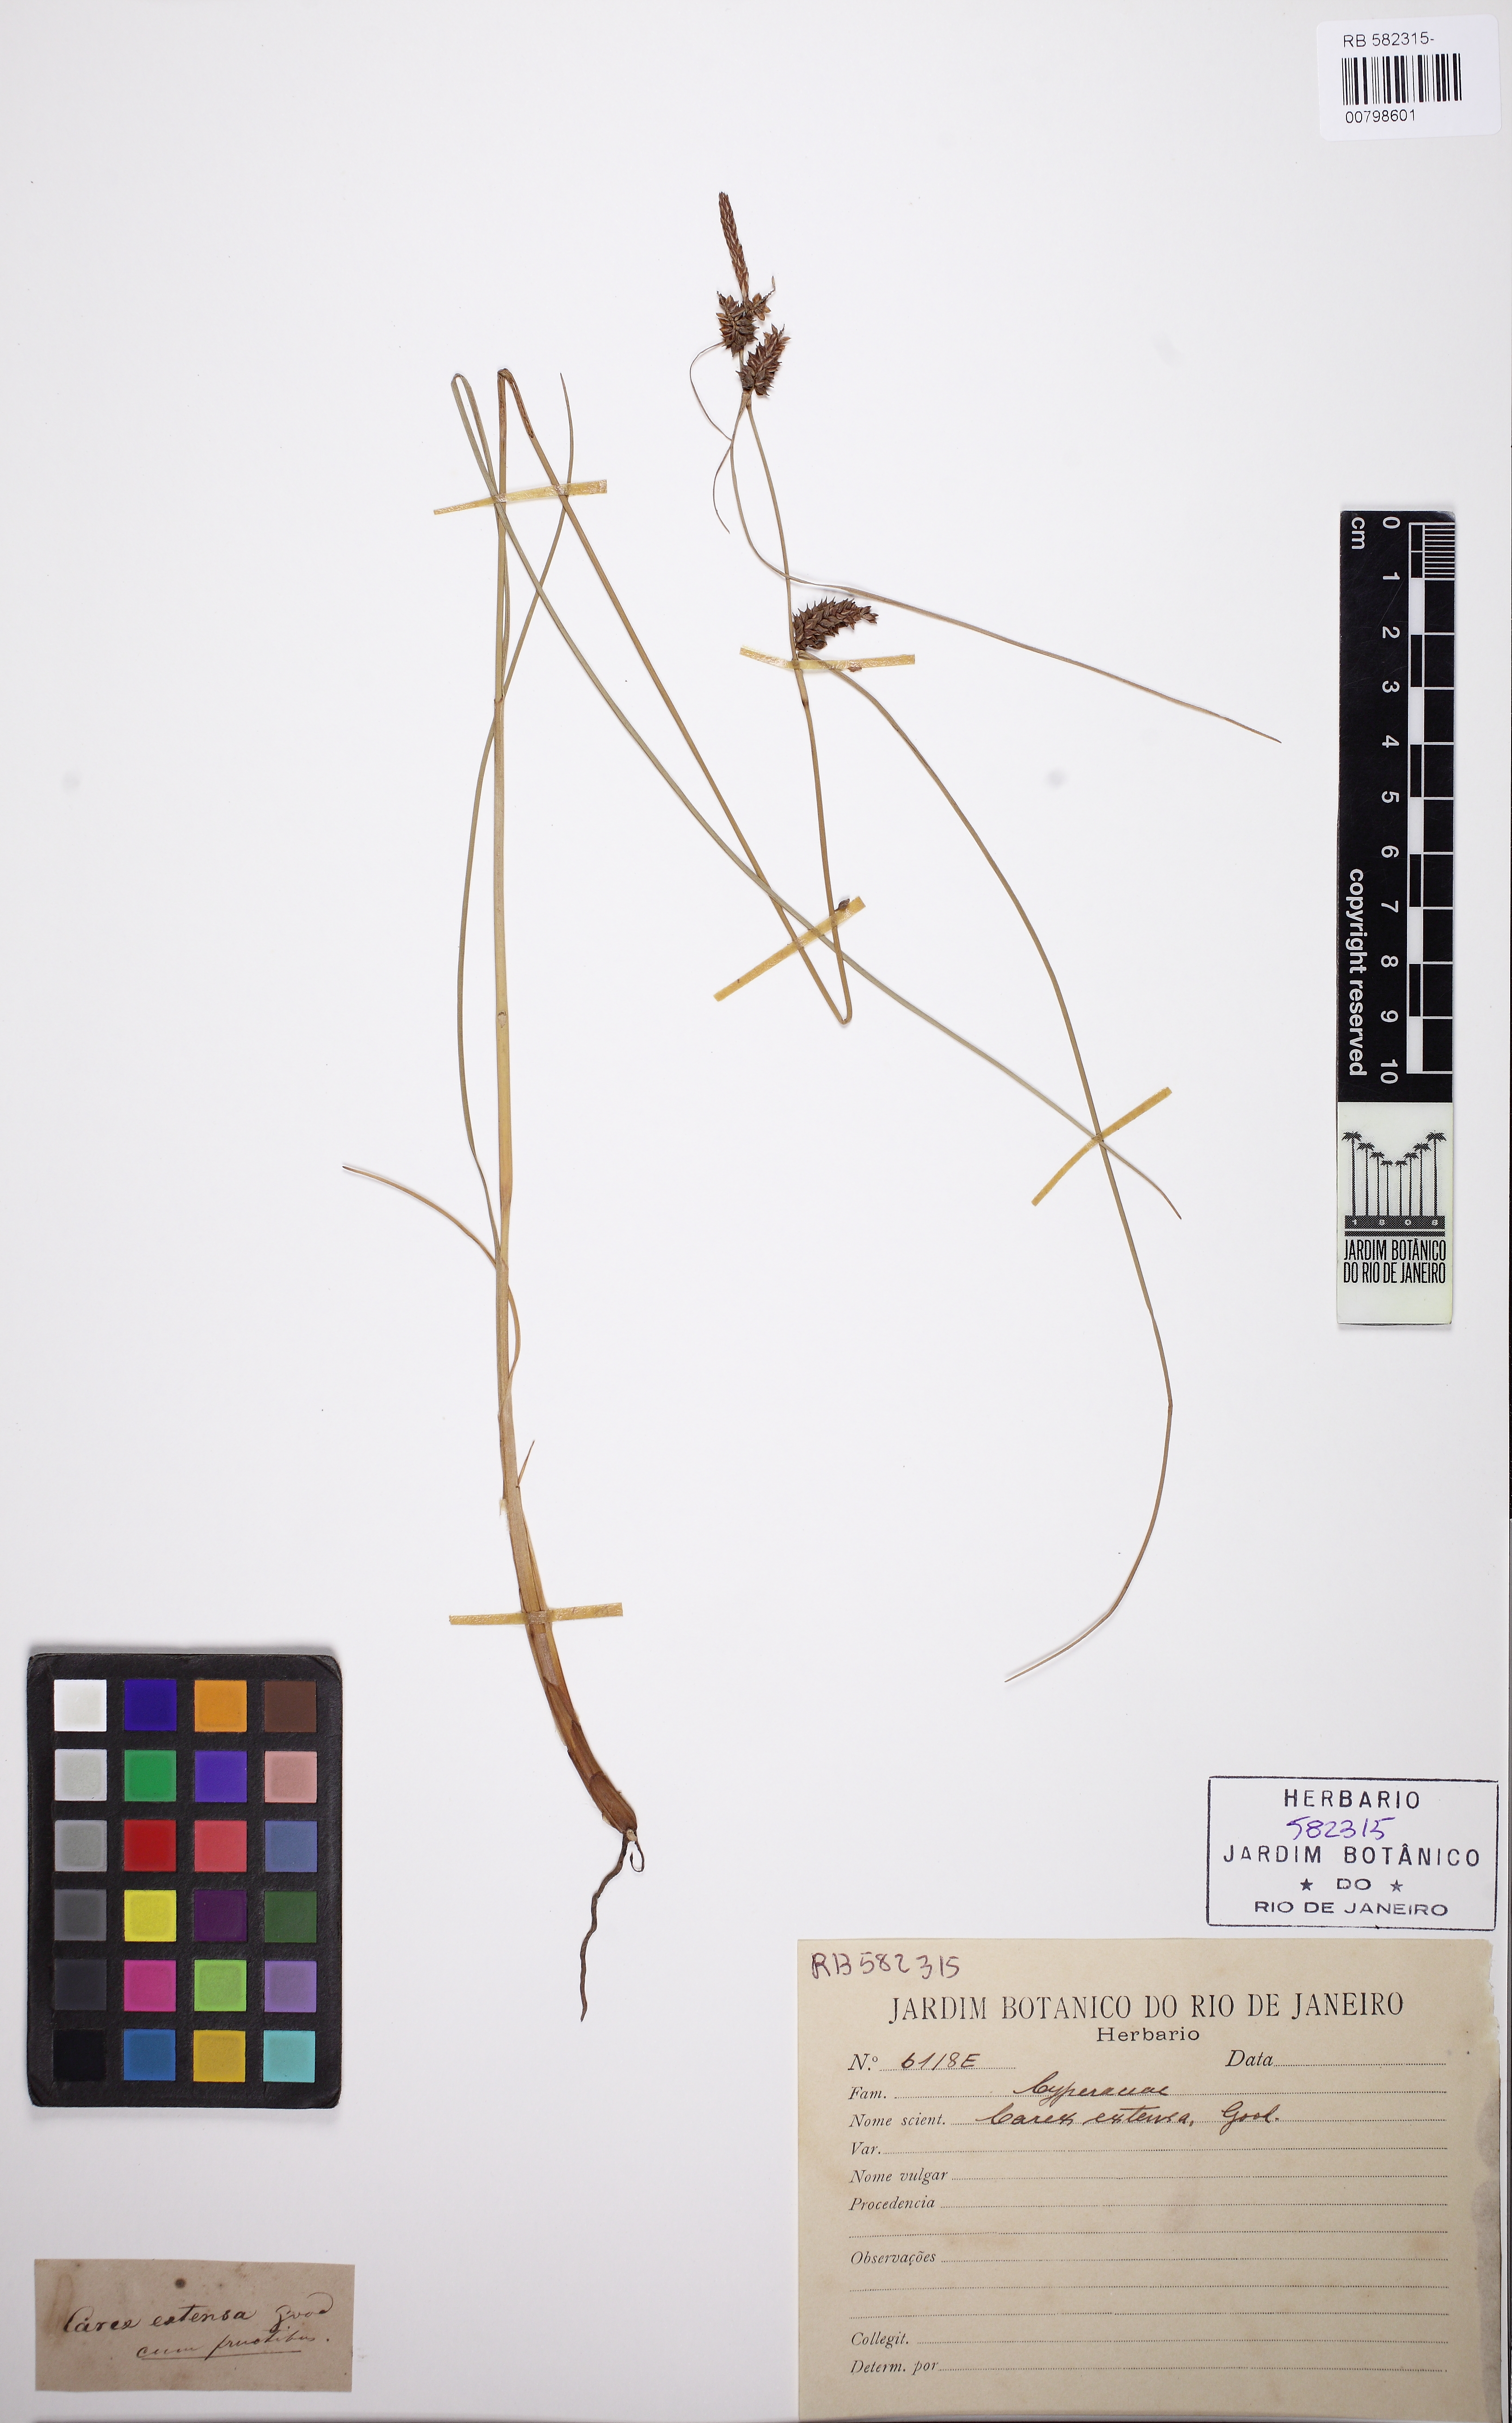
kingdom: Plantae
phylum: Tracheophyta
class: Liliopsida
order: Poales
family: Cyperaceae
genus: Carex
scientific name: Carex extensa
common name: Long-bracted sedge
